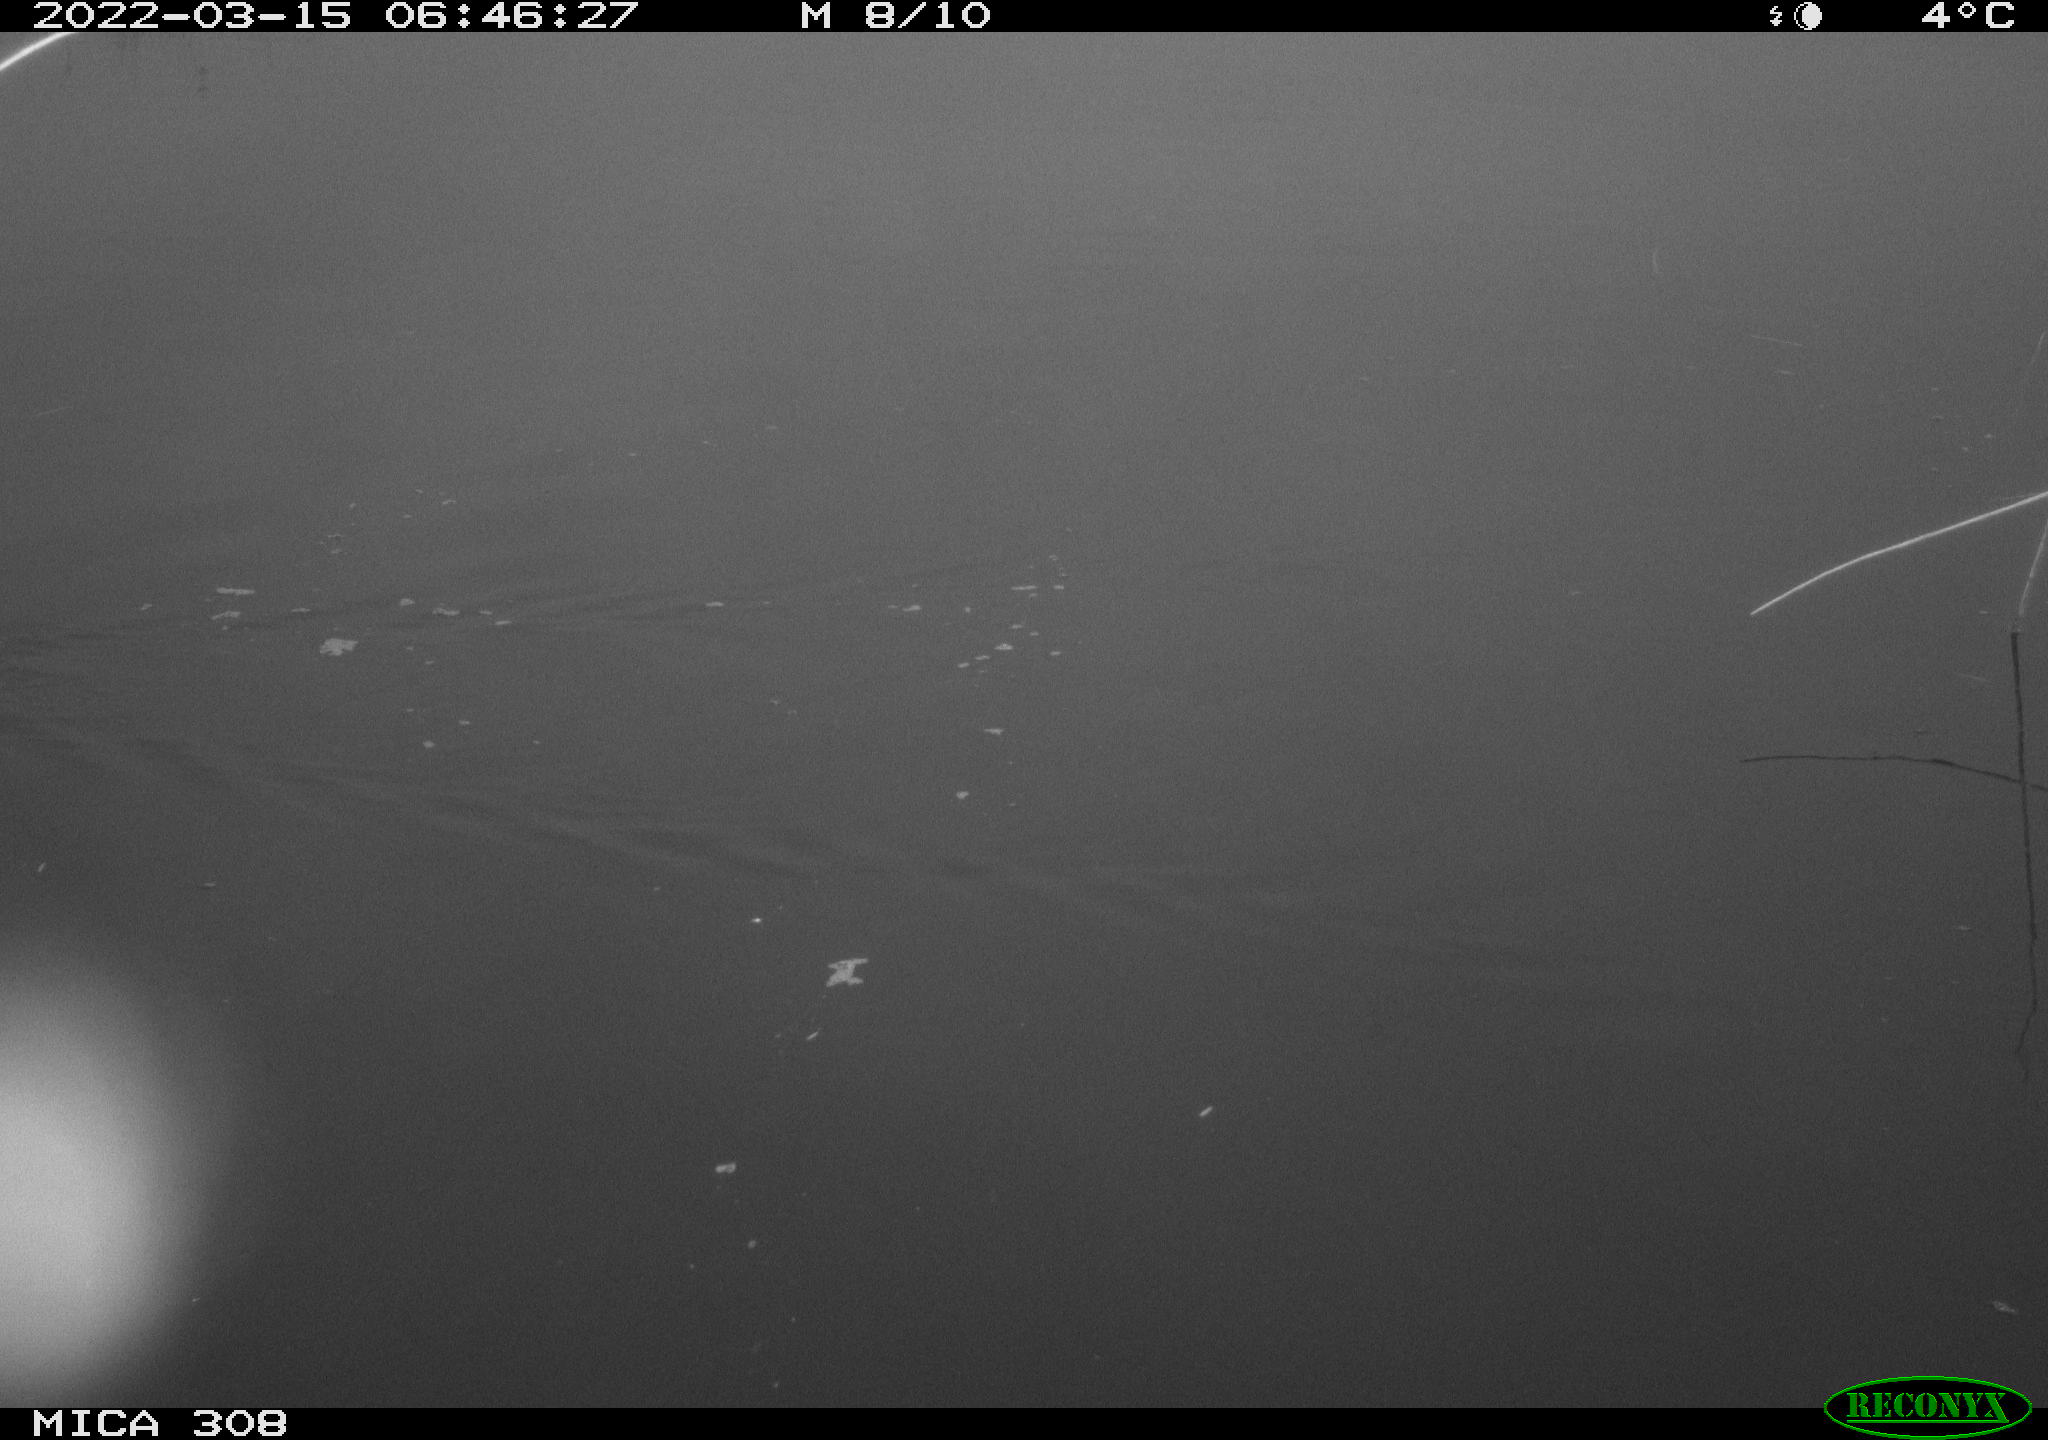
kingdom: Animalia
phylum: Chordata
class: Mammalia
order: Rodentia
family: Muridae
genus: Rattus
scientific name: Rattus norvegicus
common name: Brown rat
